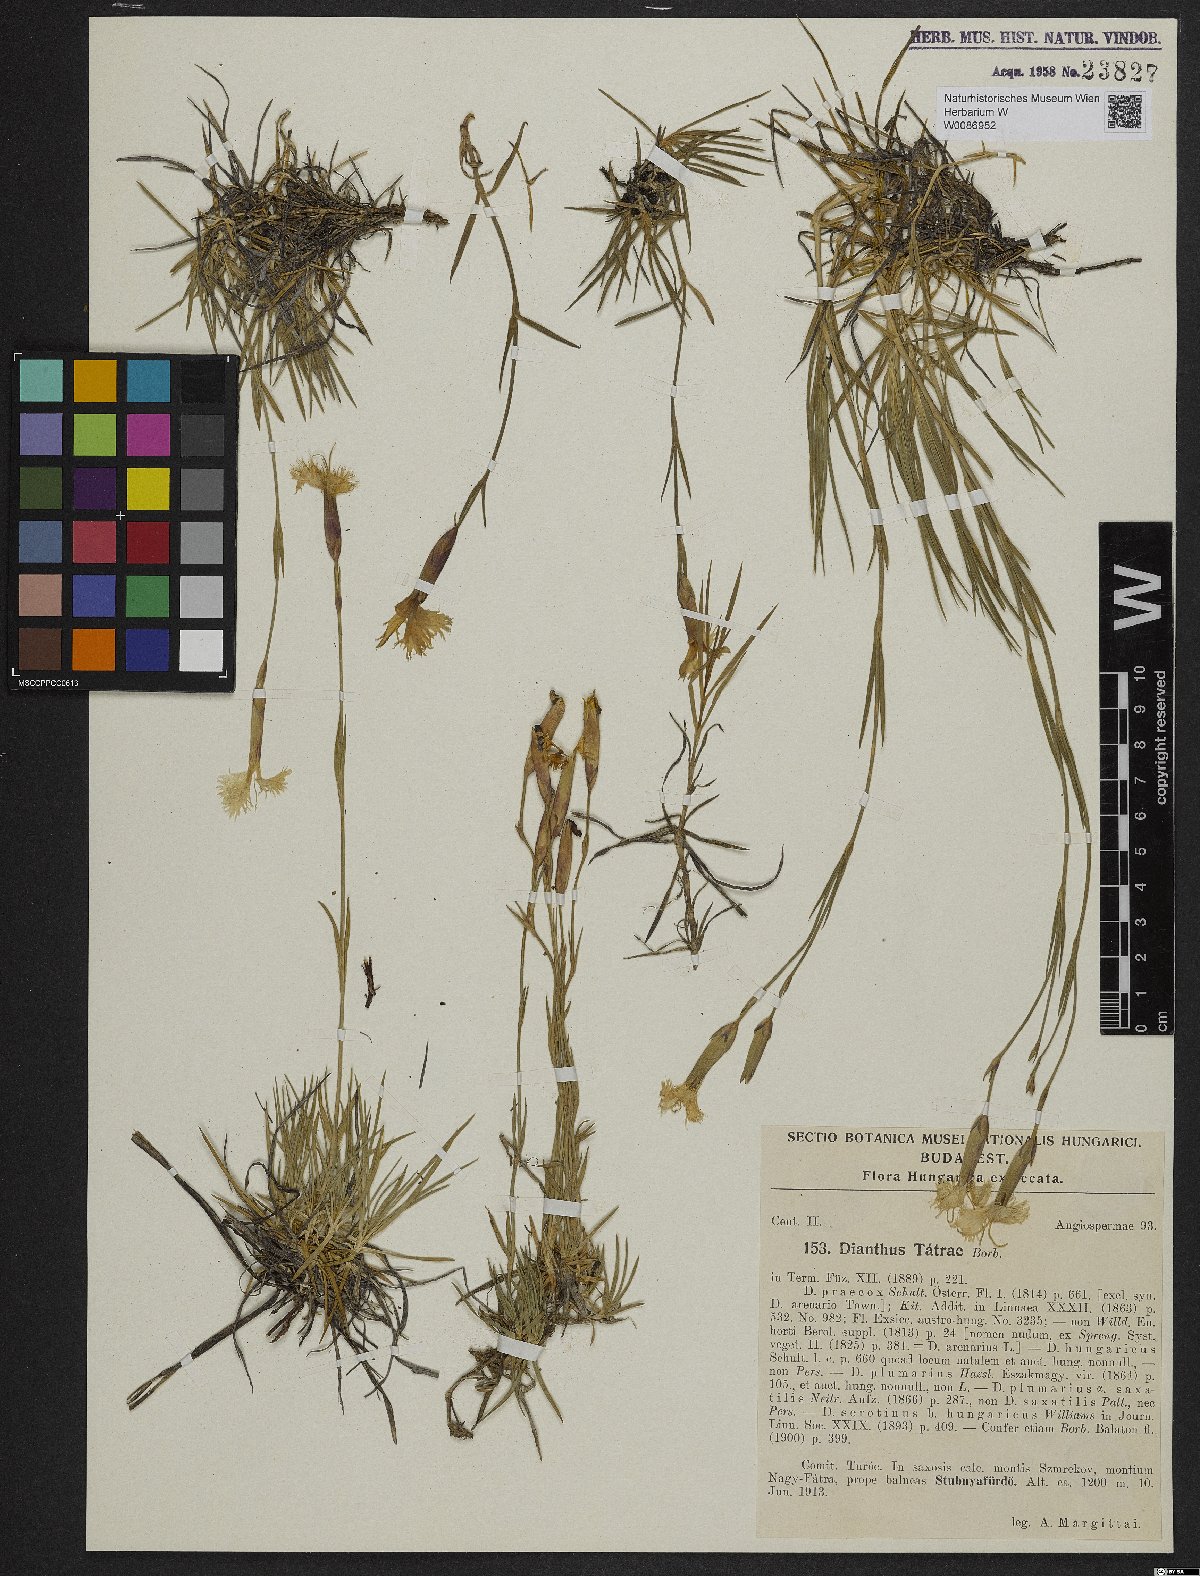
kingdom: Plantae
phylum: Tracheophyta
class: Magnoliopsida
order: Caryophyllales
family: Caryophyllaceae
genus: Dianthus
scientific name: Dianthus tatrae
